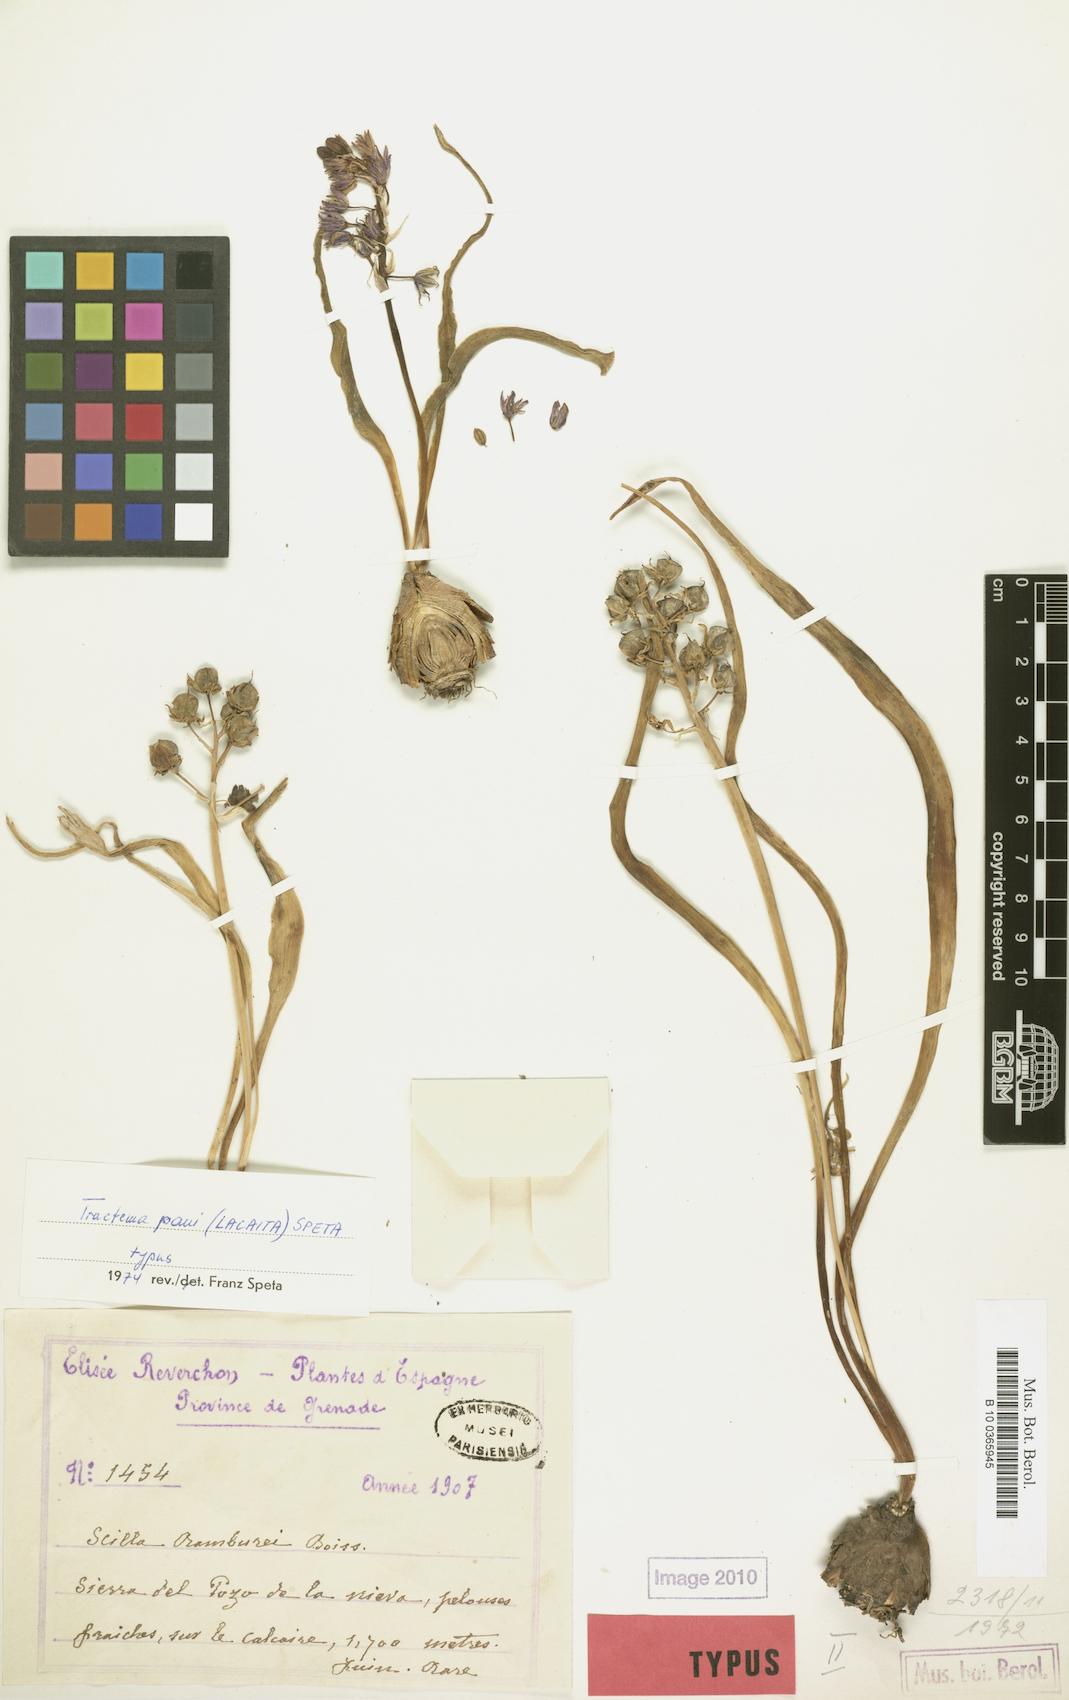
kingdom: Plantae
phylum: Tracheophyta
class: Liliopsida
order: Asparagales
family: Asparagaceae
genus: Scilla
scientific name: Scilla
